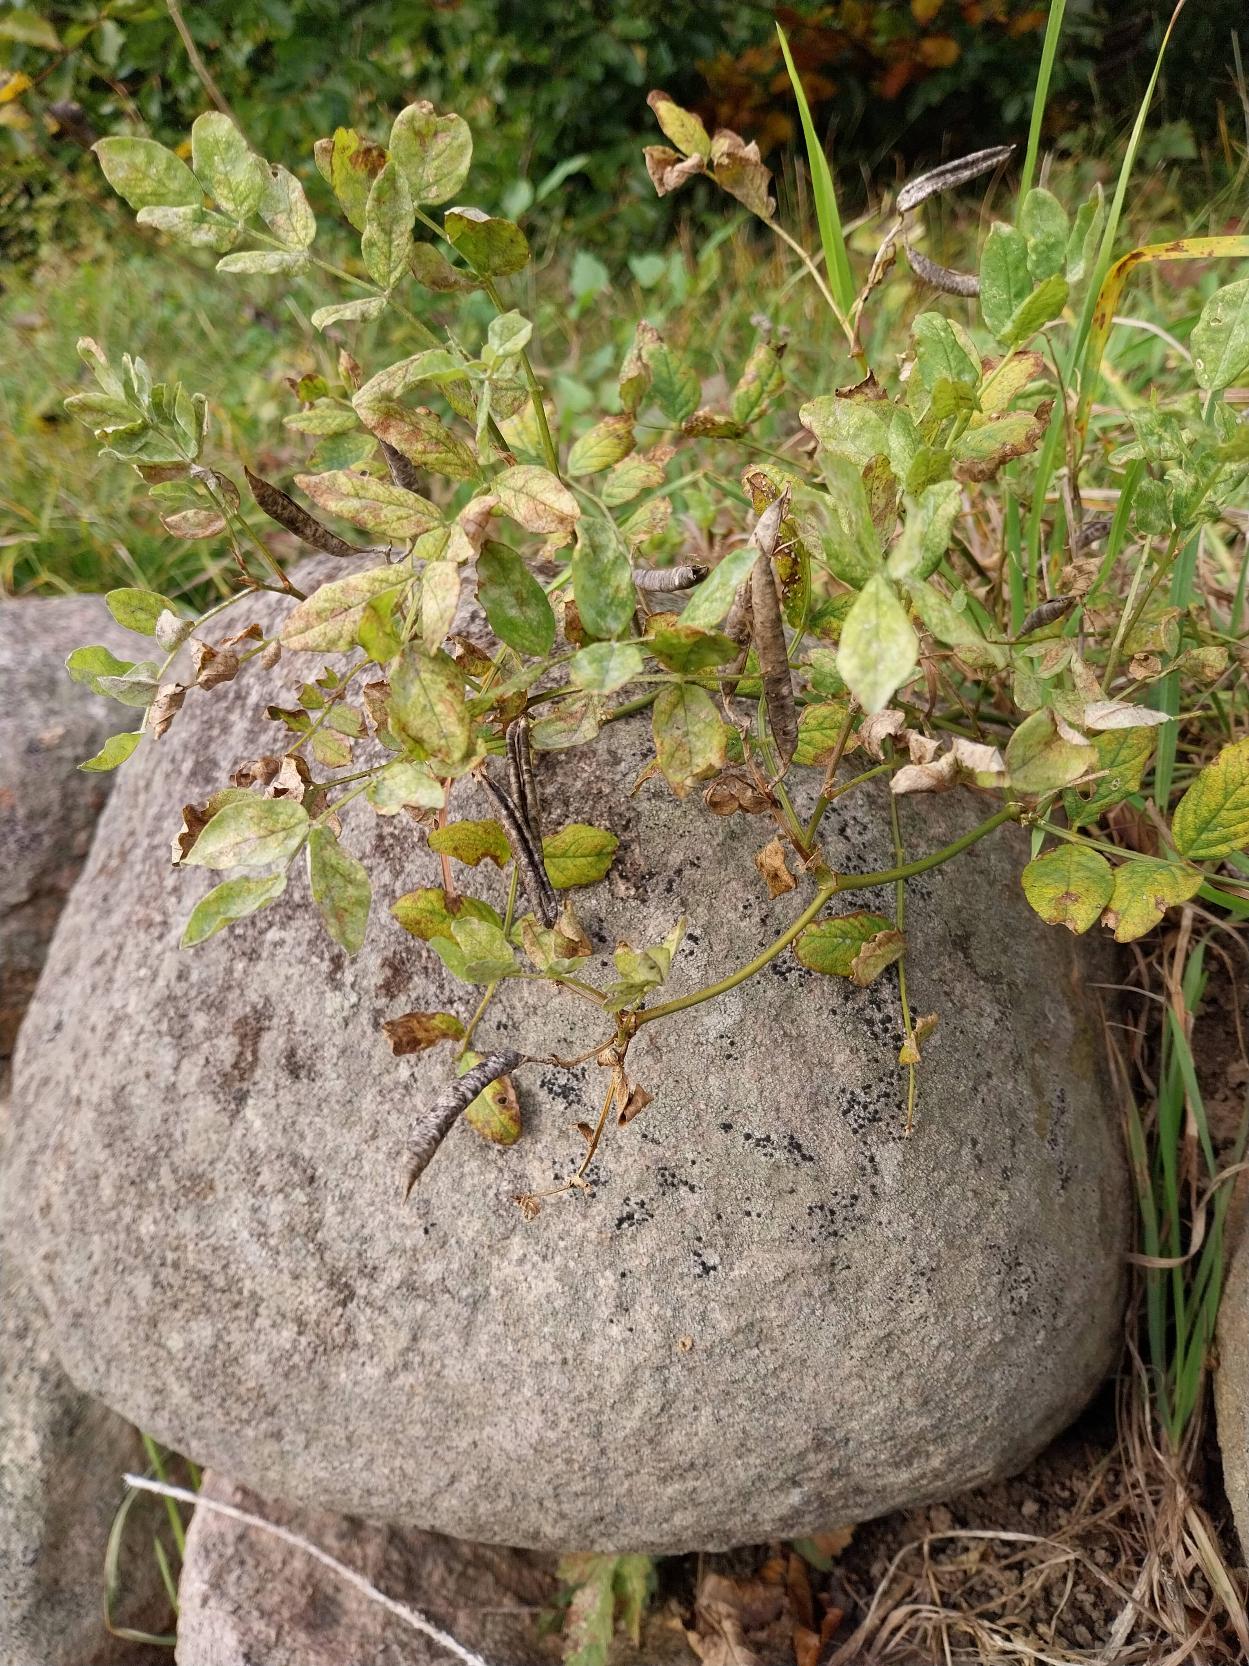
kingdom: Plantae
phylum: Tracheophyta
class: Magnoliopsida
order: Fabales
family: Fabaceae
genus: Astragalus
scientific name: Astragalus glycyphyllos
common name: Sød astragel
